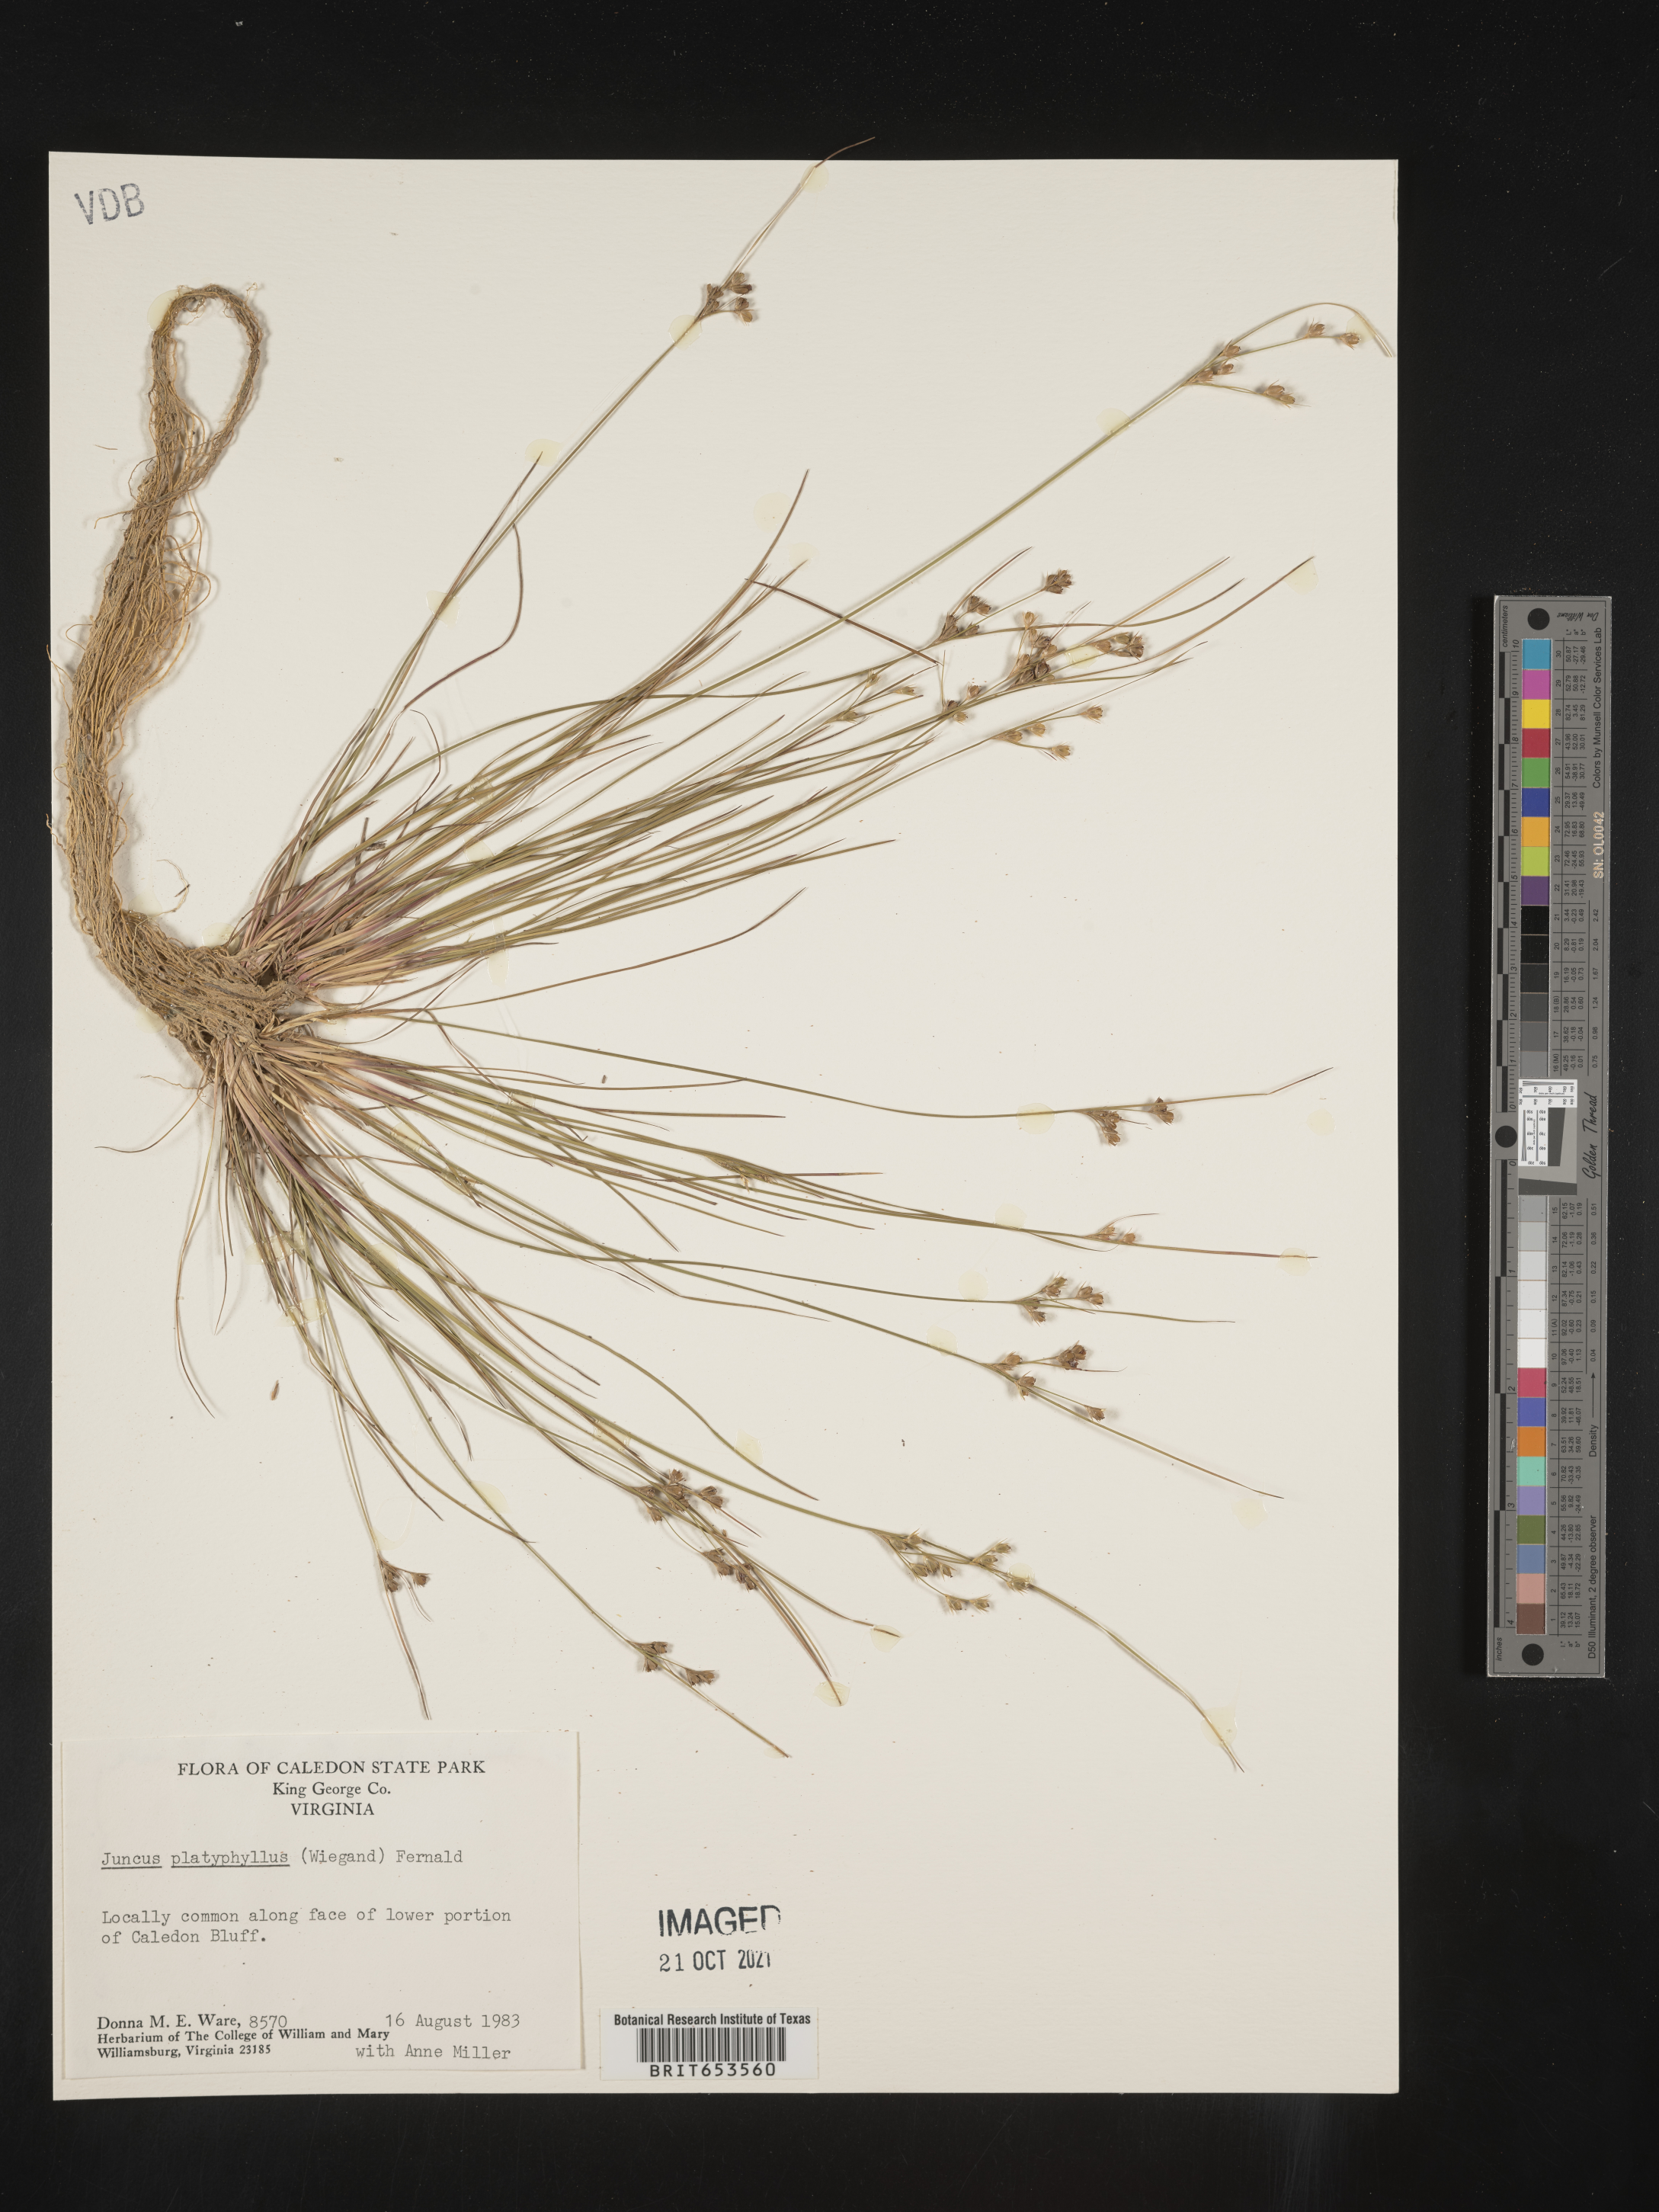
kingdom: Plantae
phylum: Tracheophyta
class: Liliopsida
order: Poales
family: Juncaceae
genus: Juncus
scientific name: Juncus dichotomus
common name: Forked rush
